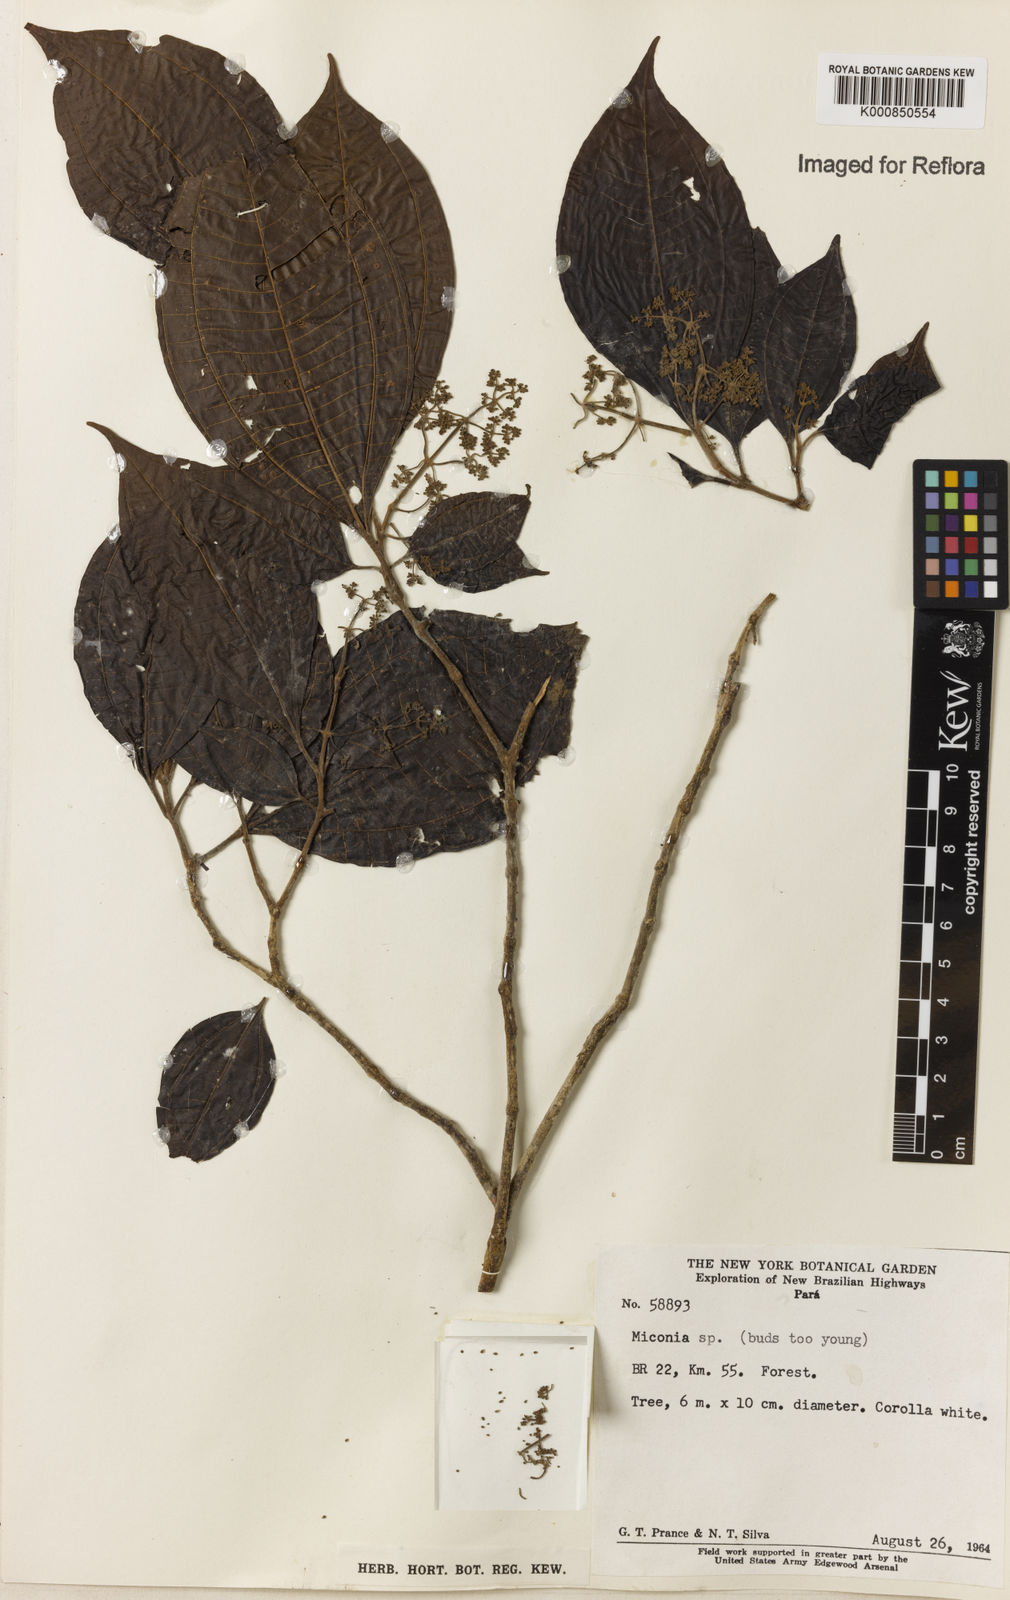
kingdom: Plantae
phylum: Tracheophyta
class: Magnoliopsida
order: Myrtales
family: Melastomataceae
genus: Miconia
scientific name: Miconia
